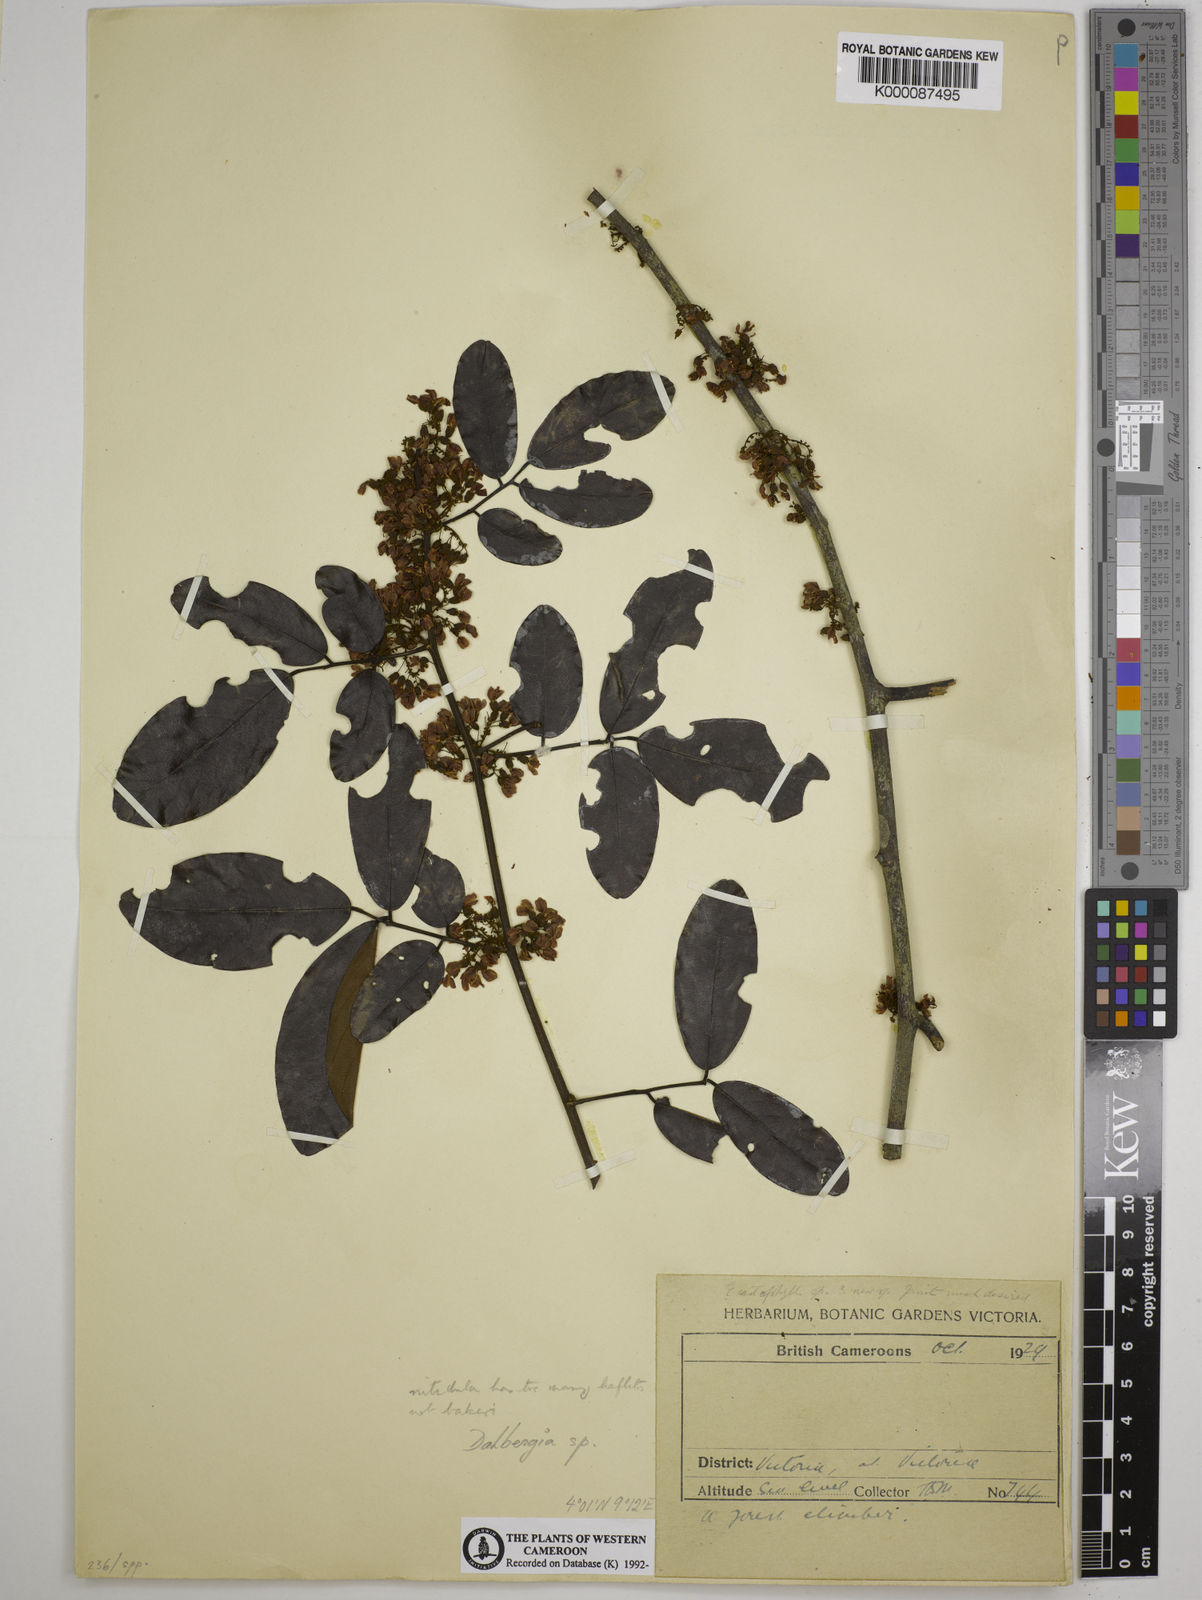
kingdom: Plantae
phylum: Tracheophyta
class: Magnoliopsida
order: Fabales
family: Fabaceae
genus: Dalbergia
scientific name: Dalbergia
